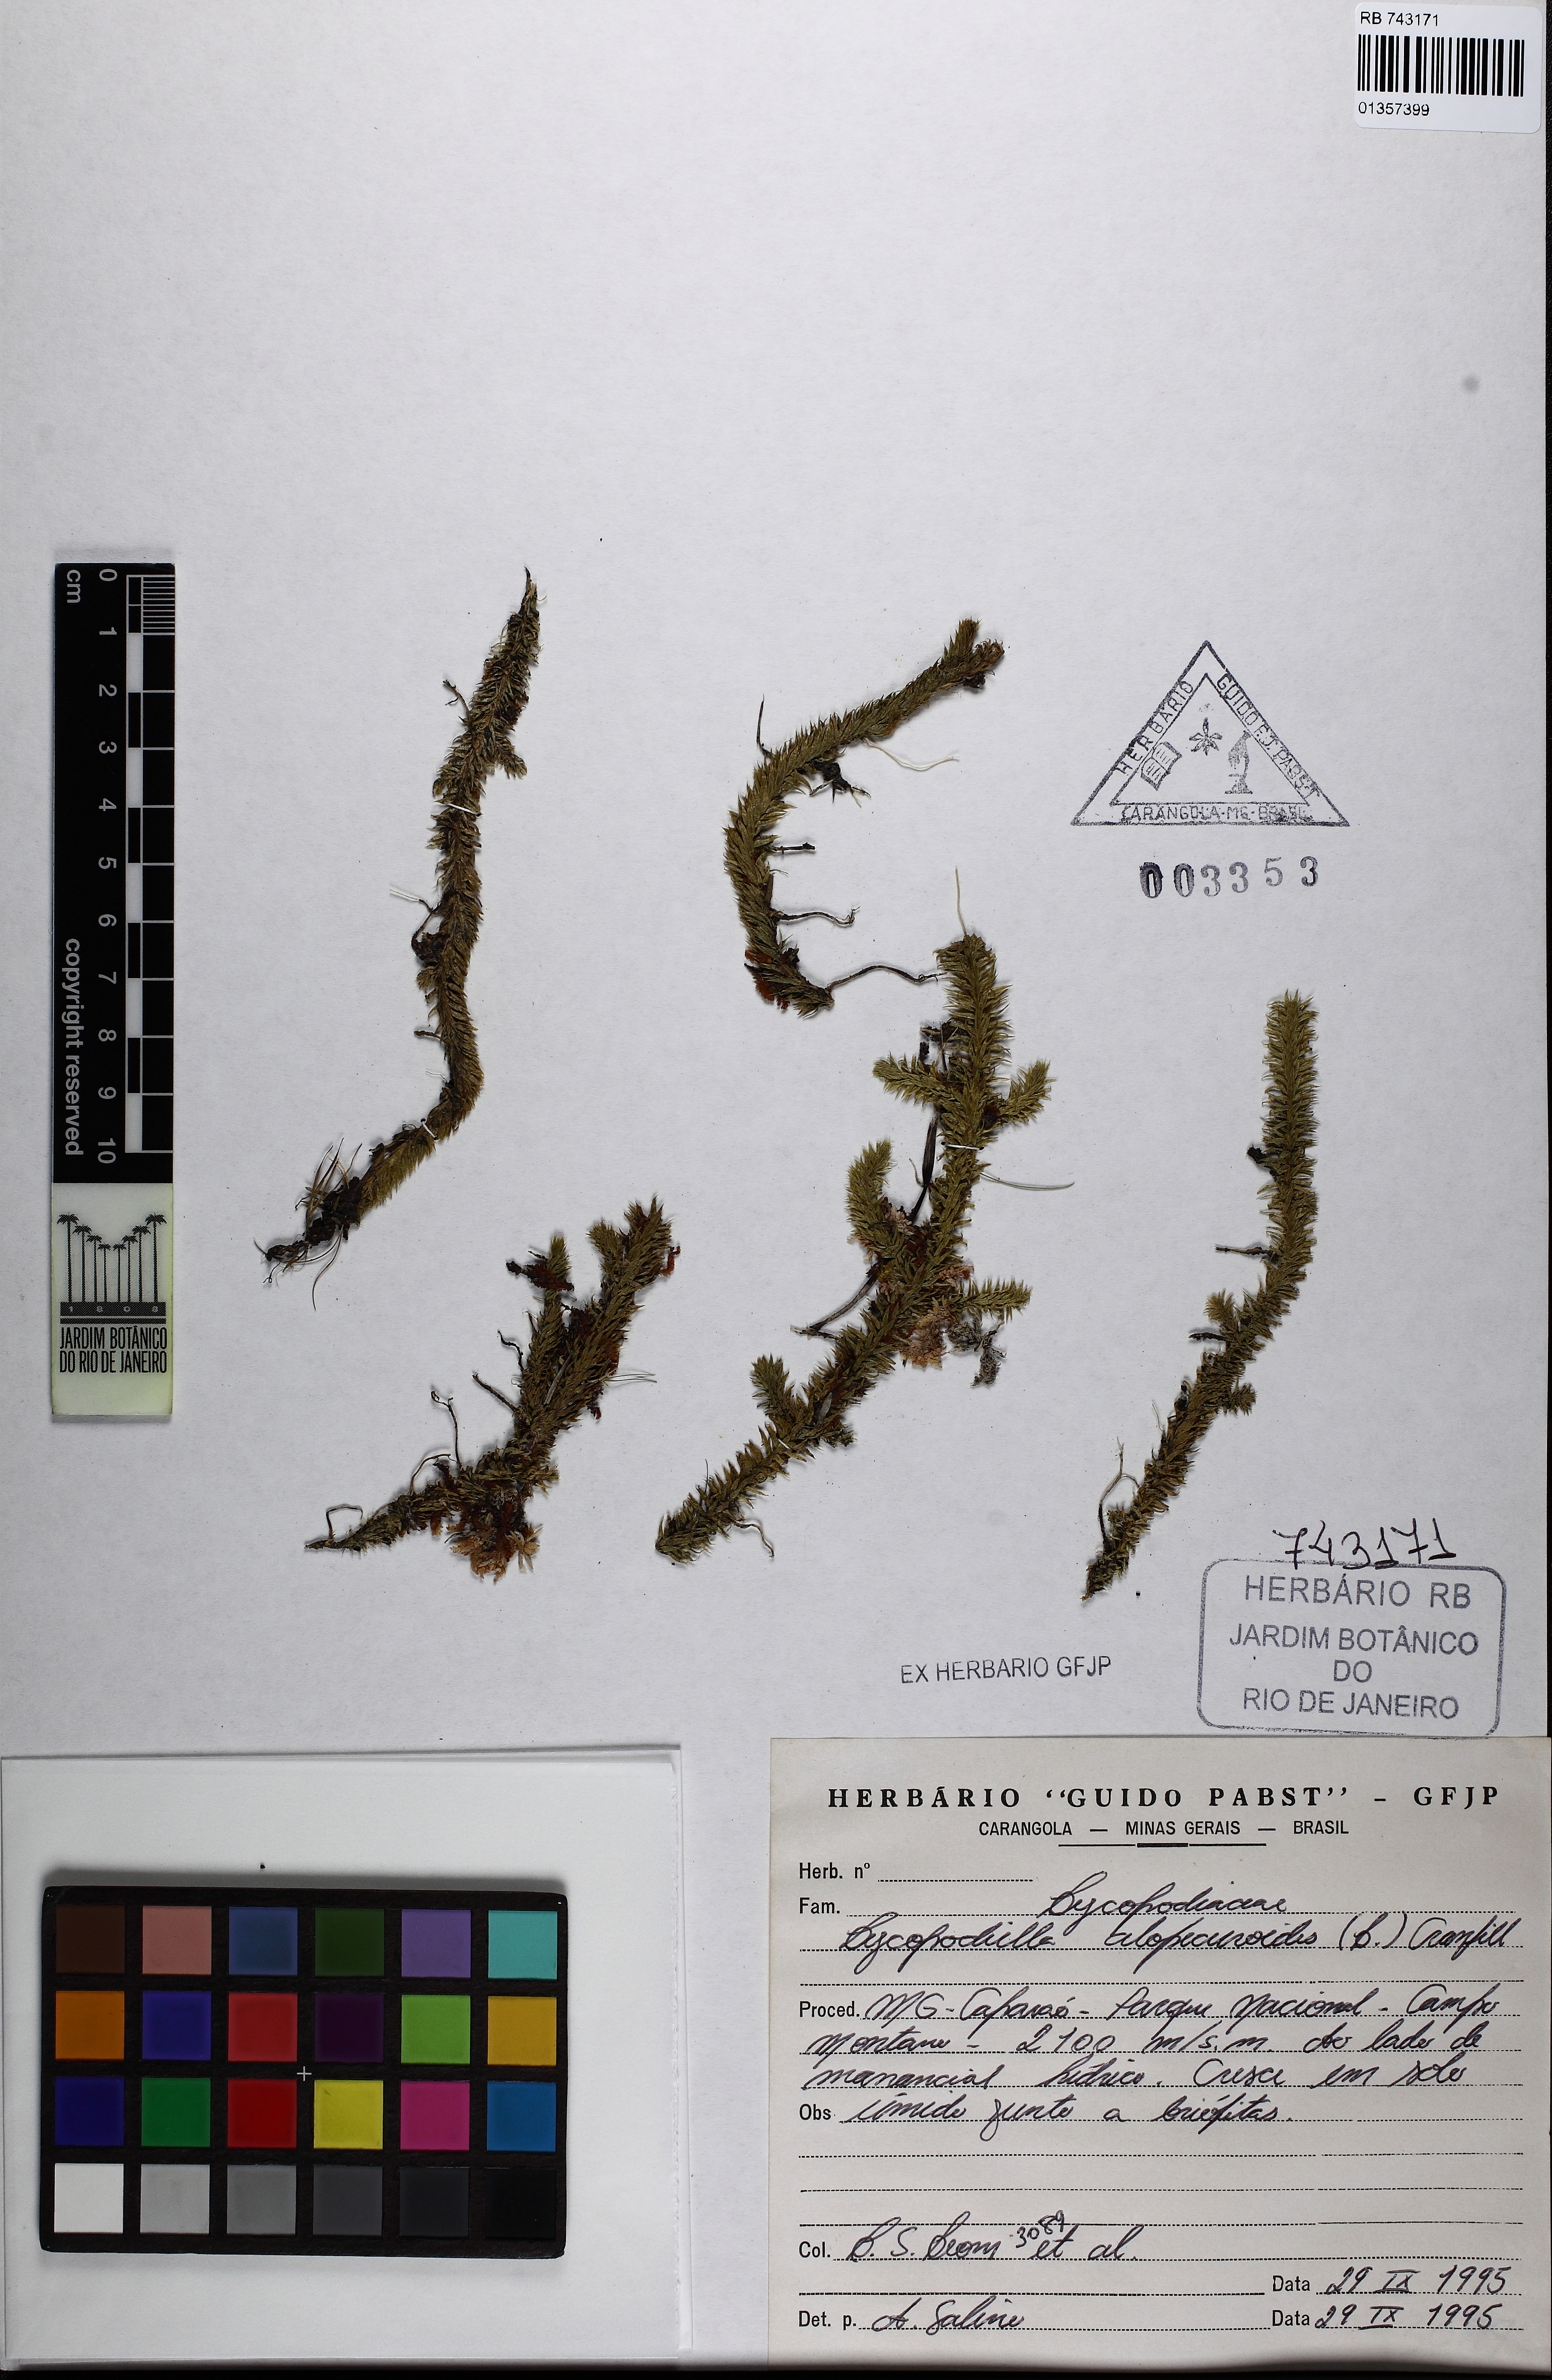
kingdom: Plantae
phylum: Tracheophyta
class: Lycopodiopsida
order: Lycopodiales
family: Lycopodiaceae
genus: Lycopodiella
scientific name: Lycopodiella alopecuroides
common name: Foxtail clubmoss
